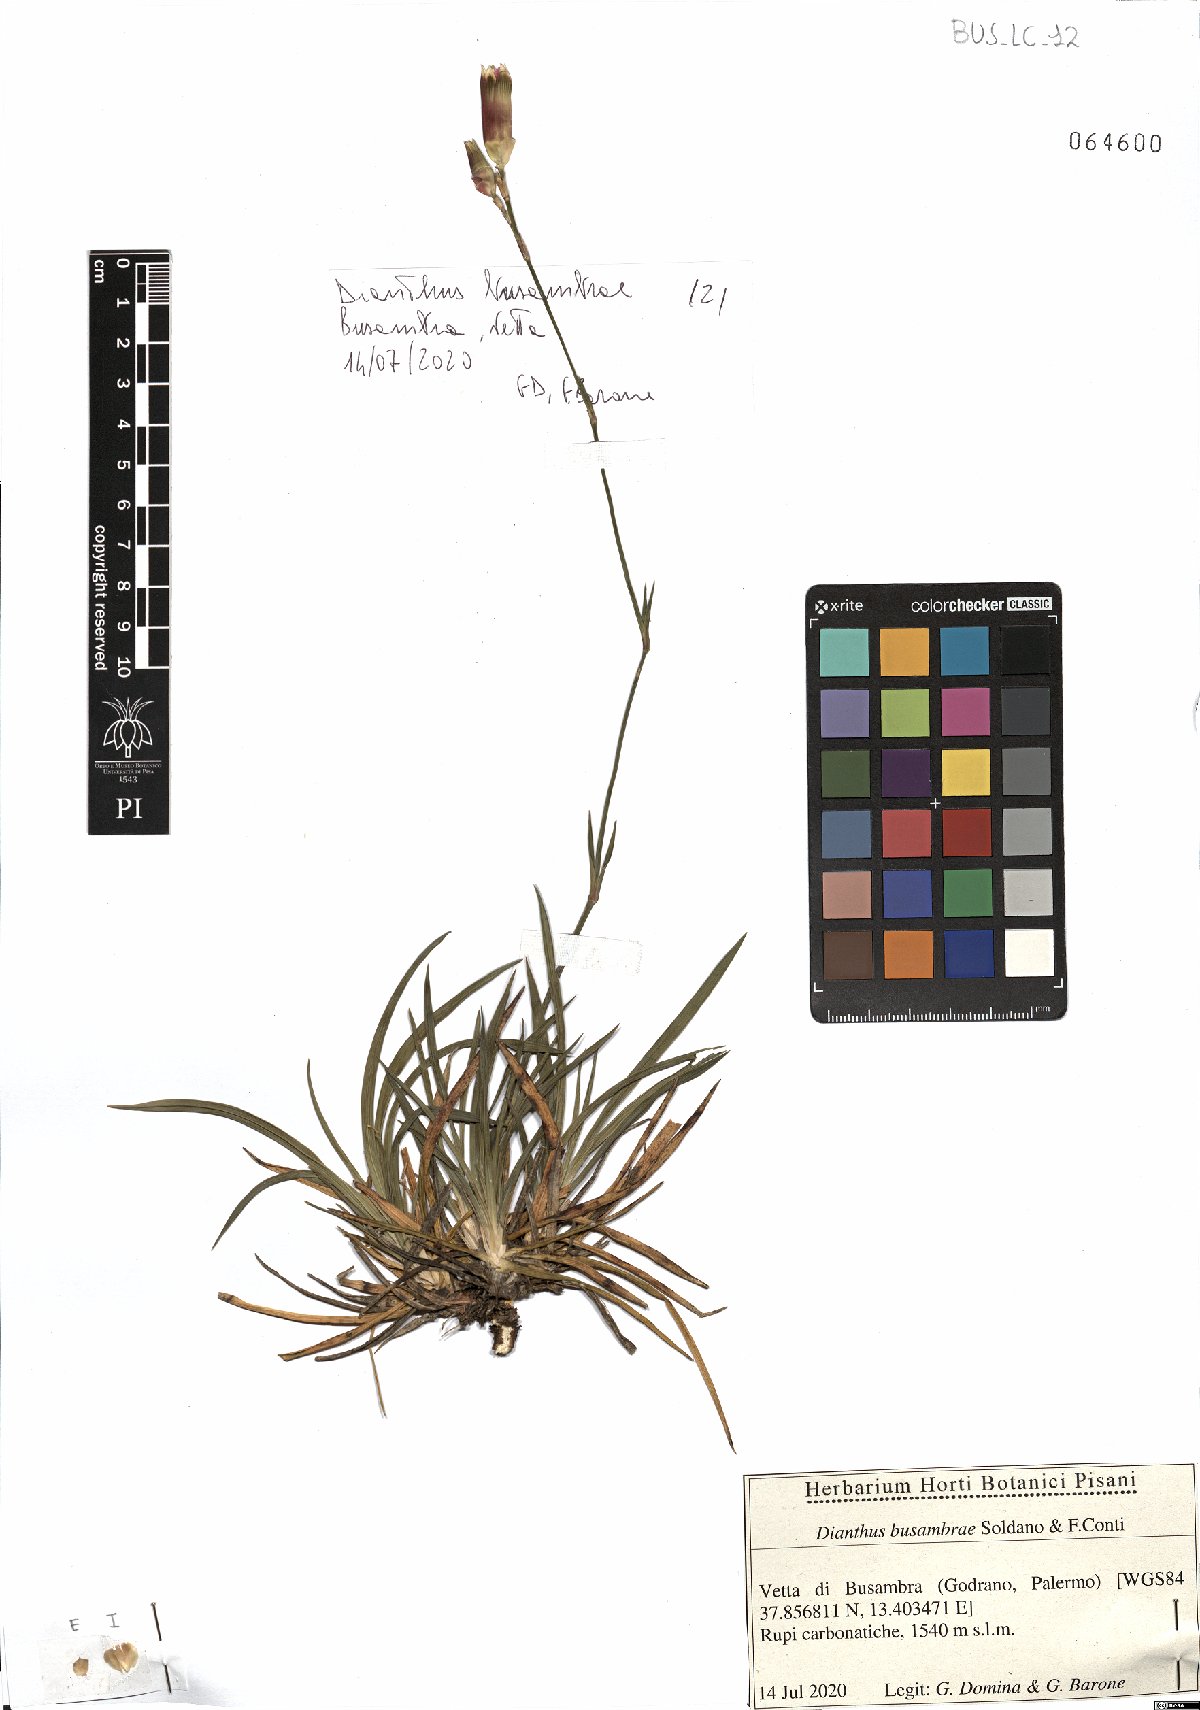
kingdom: Plantae
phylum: Tracheophyta
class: Magnoliopsida
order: Caryophyllales
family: Caryophyllaceae
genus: Dianthus
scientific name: Dianthus busambrae
